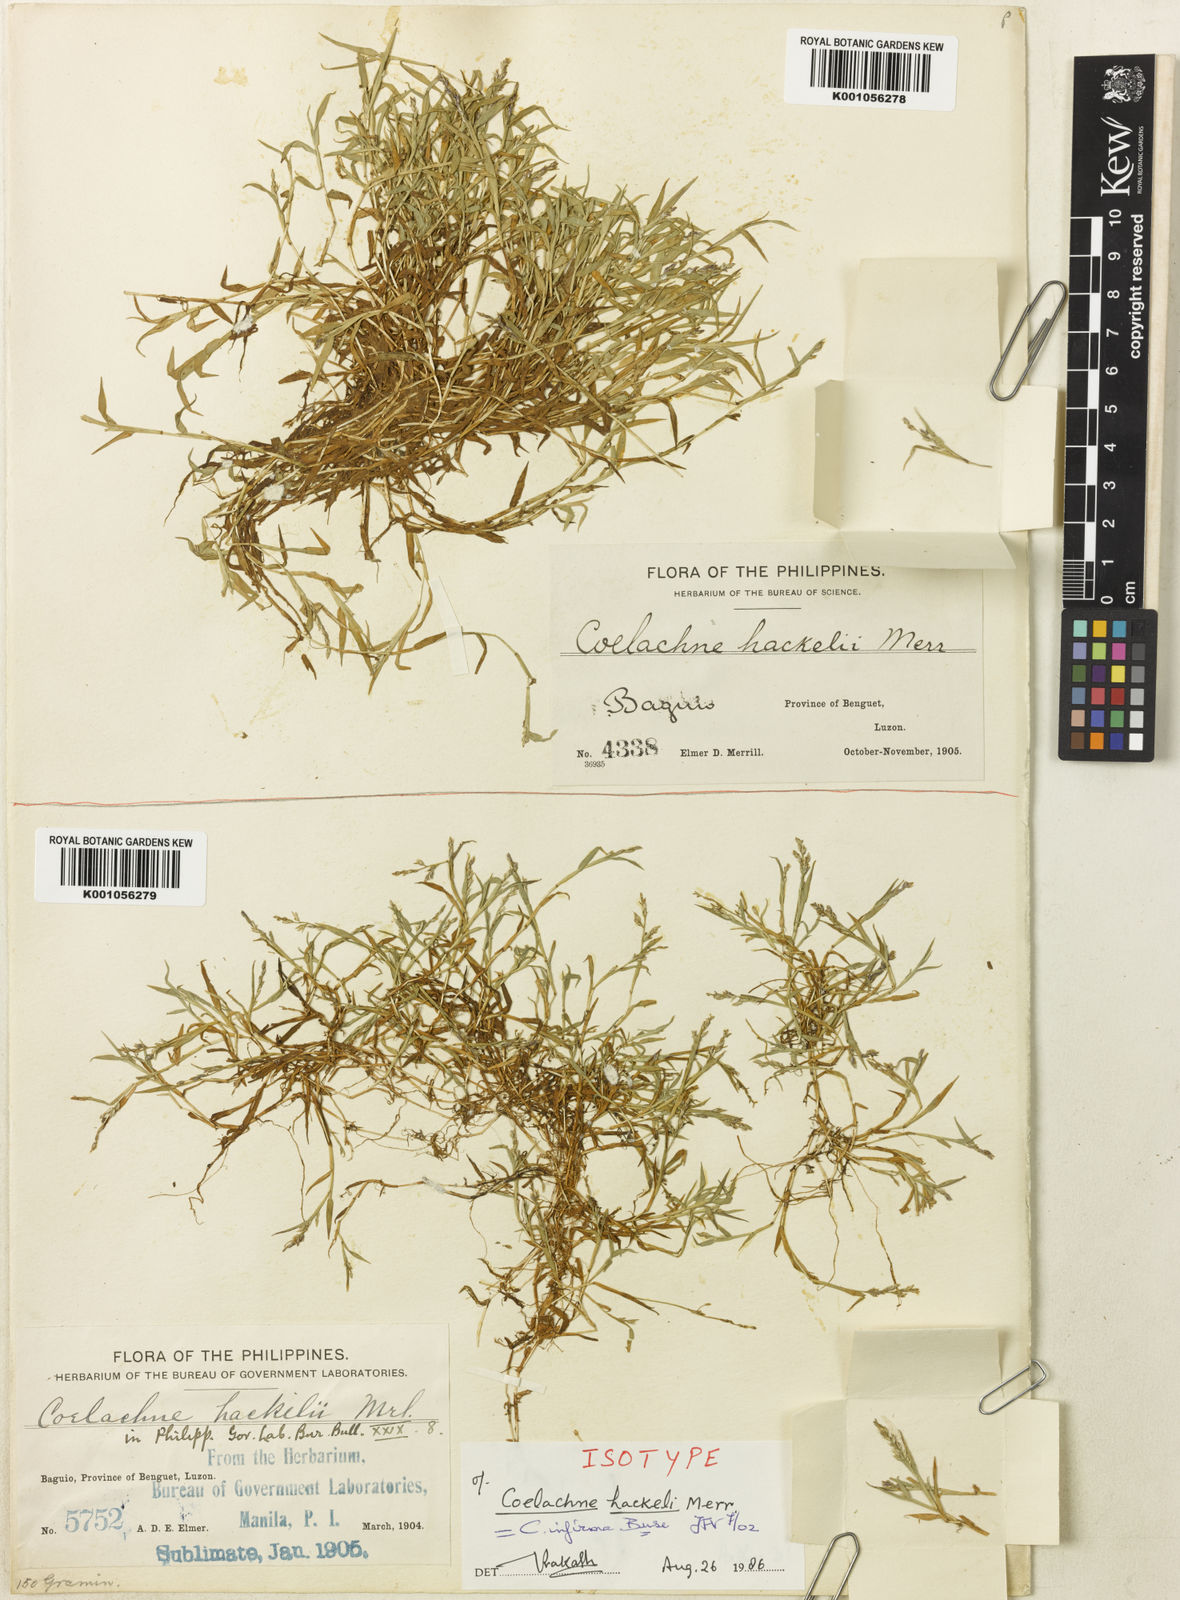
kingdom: Plantae
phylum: Tracheophyta
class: Liliopsida
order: Poales
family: Poaceae
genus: Coelachne
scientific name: Coelachne infirma
